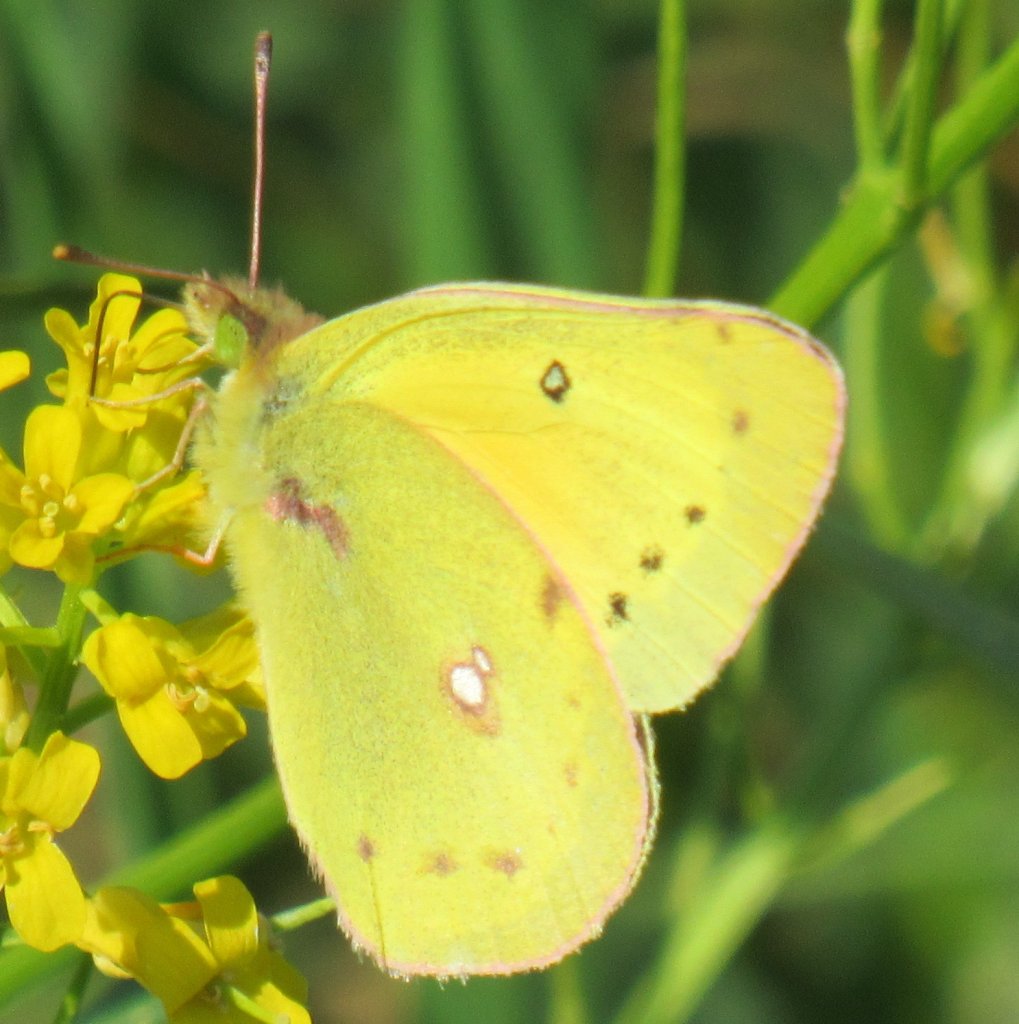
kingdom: Animalia
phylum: Arthropoda
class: Insecta
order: Lepidoptera
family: Pieridae
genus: Colias
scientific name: Colias eurytheme
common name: Orange Sulphur
